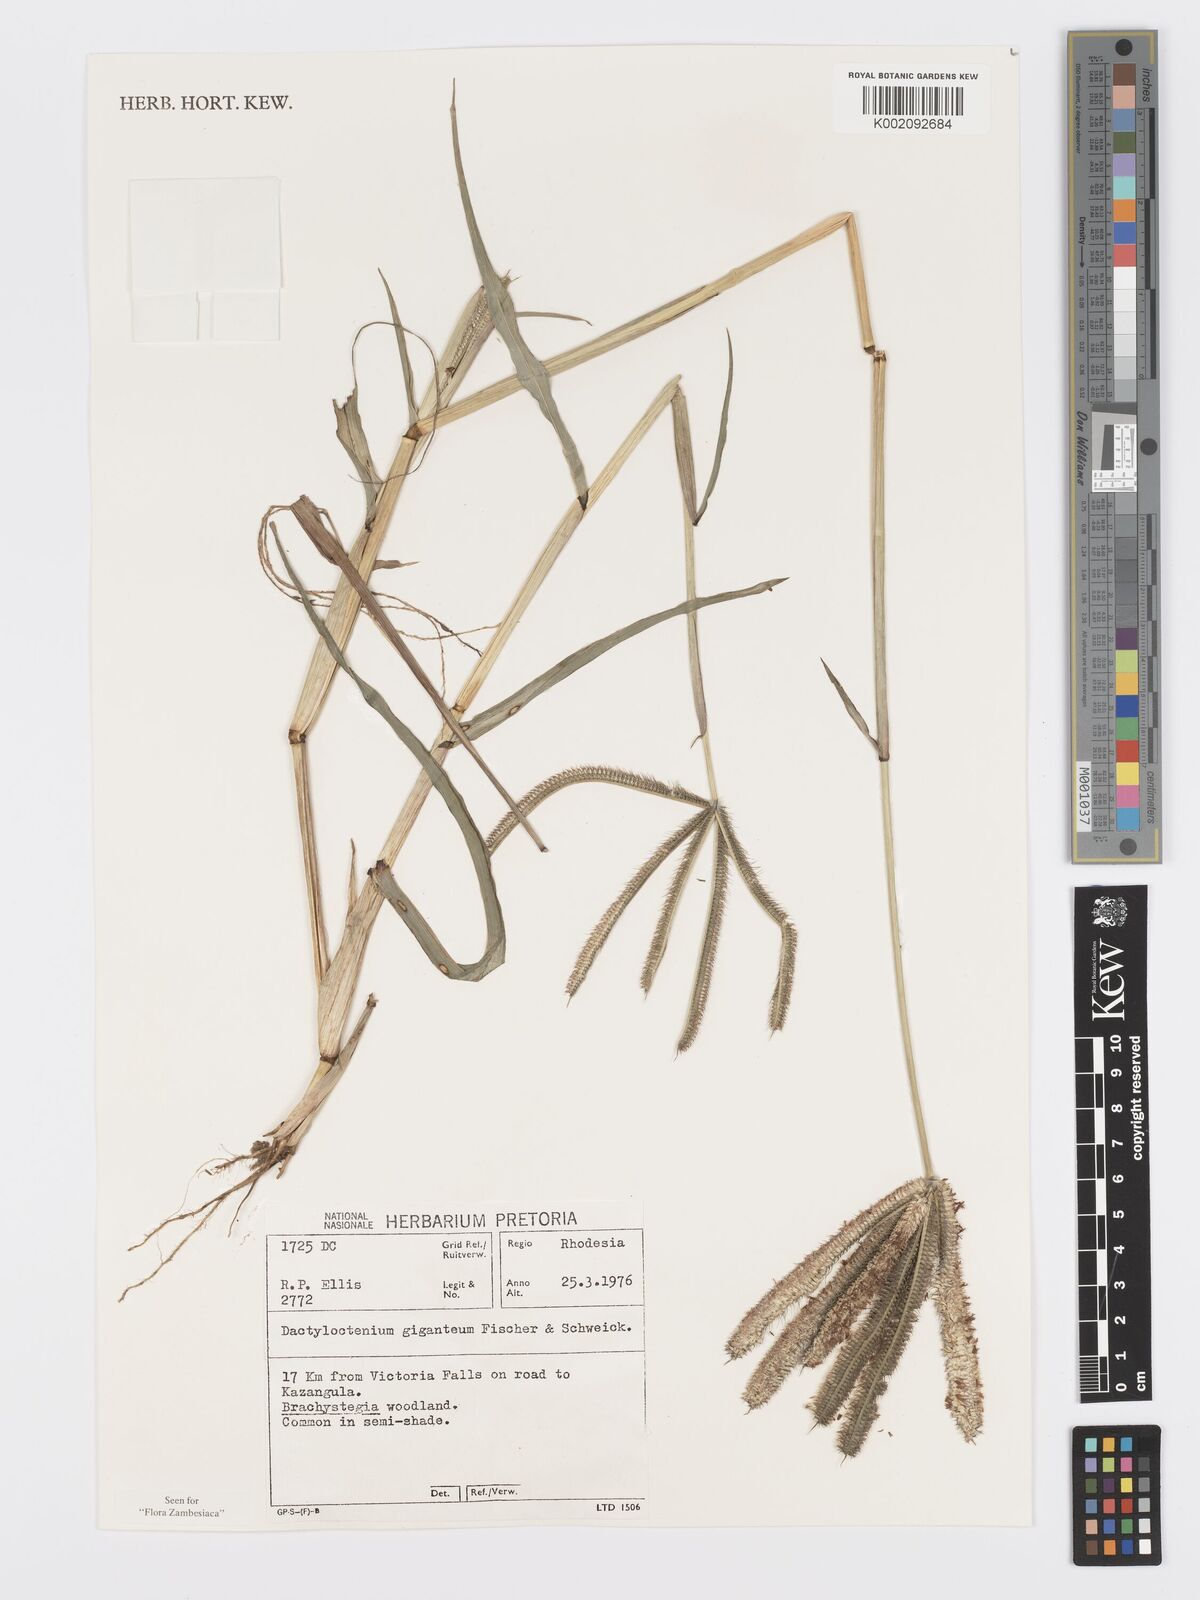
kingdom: Plantae
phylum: Tracheophyta
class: Liliopsida
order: Poales
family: Poaceae
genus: Dactyloctenium
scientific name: Dactyloctenium giganteum
